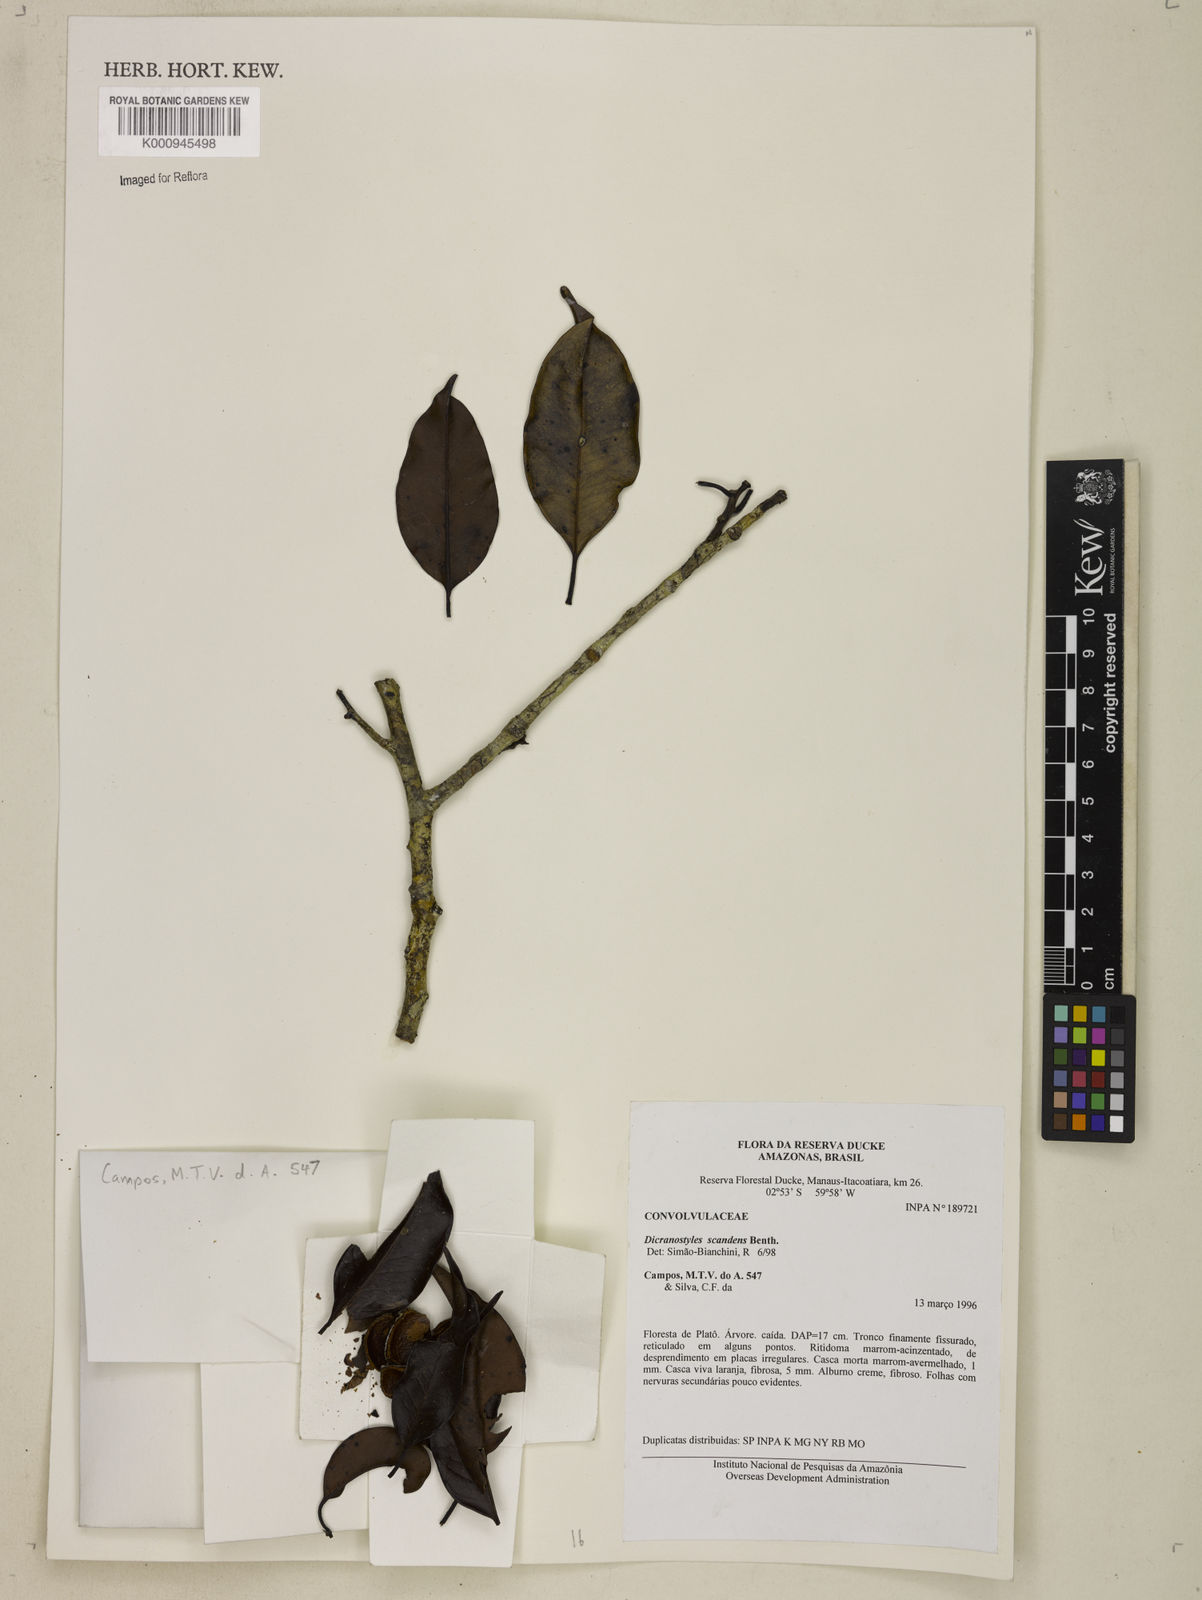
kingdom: Plantae
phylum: Tracheophyta
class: Magnoliopsida
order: Solanales
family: Convolvulaceae
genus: Dicranostyles
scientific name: Dicranostyles scandens
